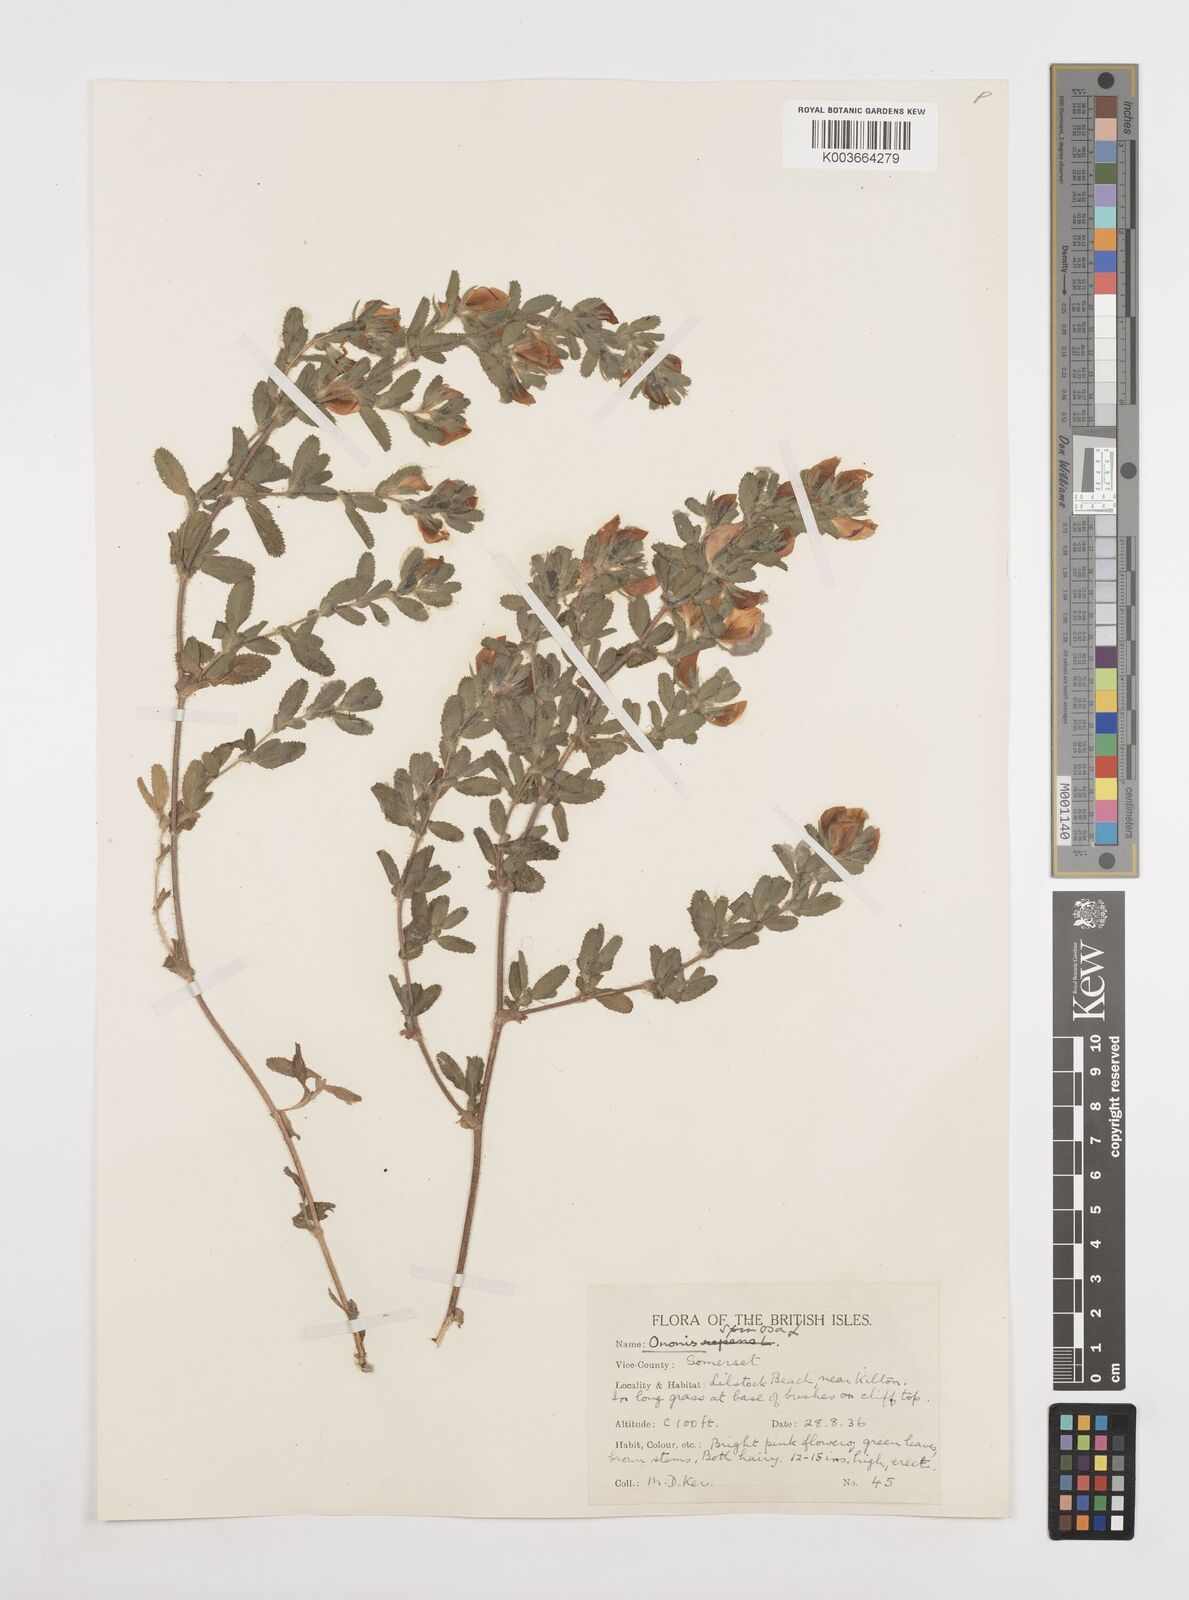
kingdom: Plantae
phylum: Tracheophyta
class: Magnoliopsida
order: Fabales
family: Fabaceae
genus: Ononis
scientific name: Ononis spinosa
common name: Spiny restharrow
